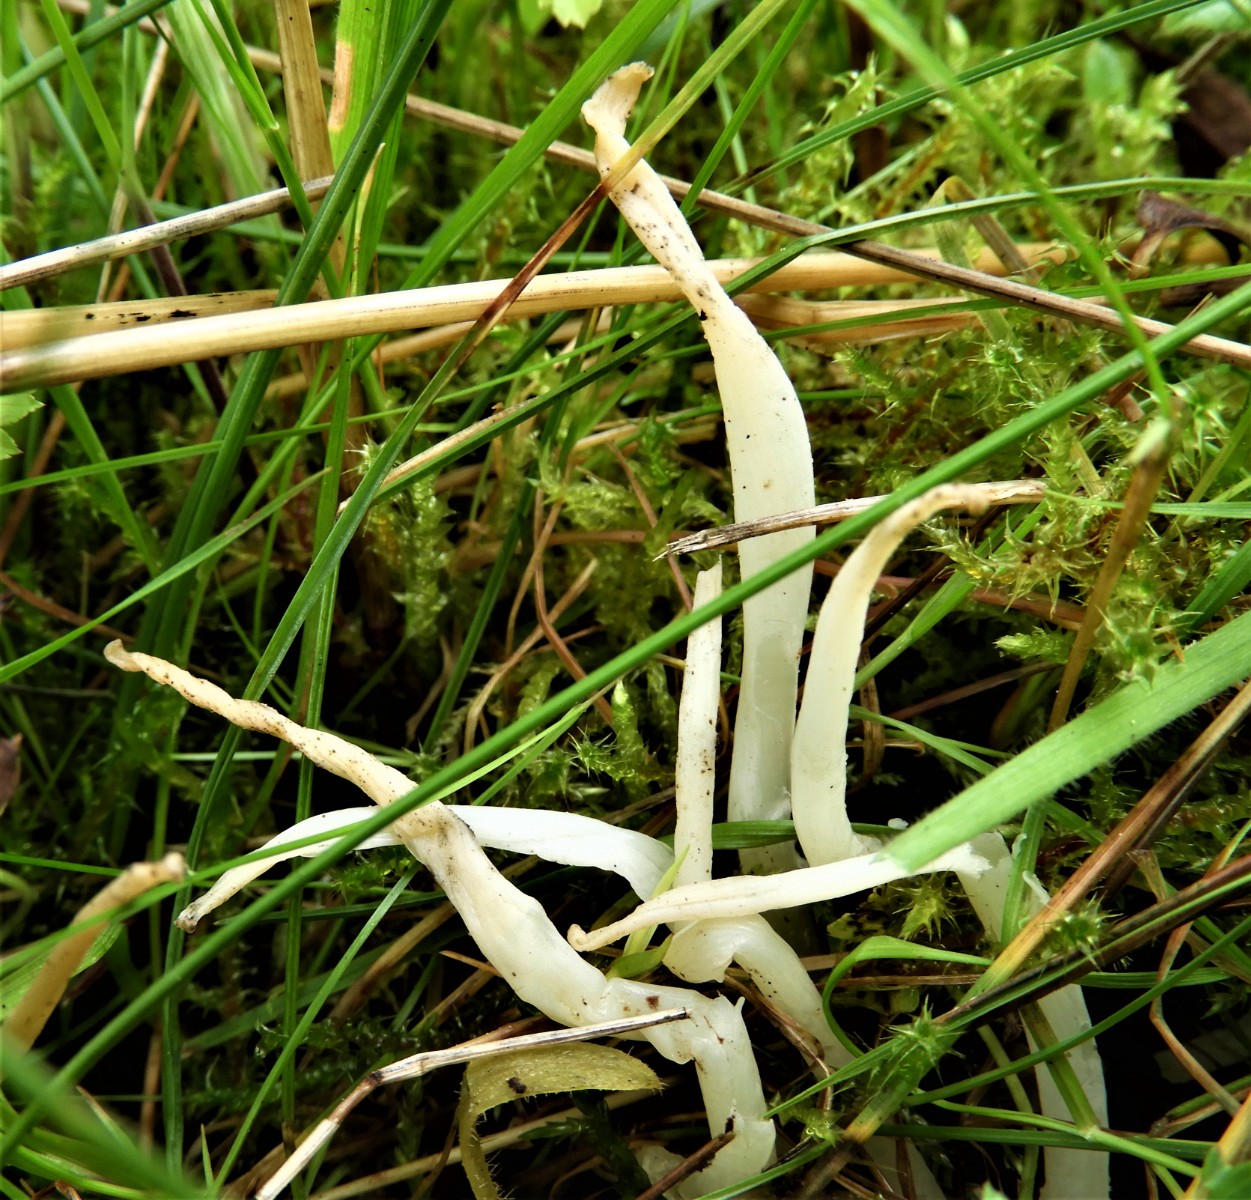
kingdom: Fungi
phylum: Basidiomycota
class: Agaricomycetes
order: Agaricales
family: Clavariaceae
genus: Clavaria
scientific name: Clavaria fragilis
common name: bugtet køllesvamp
